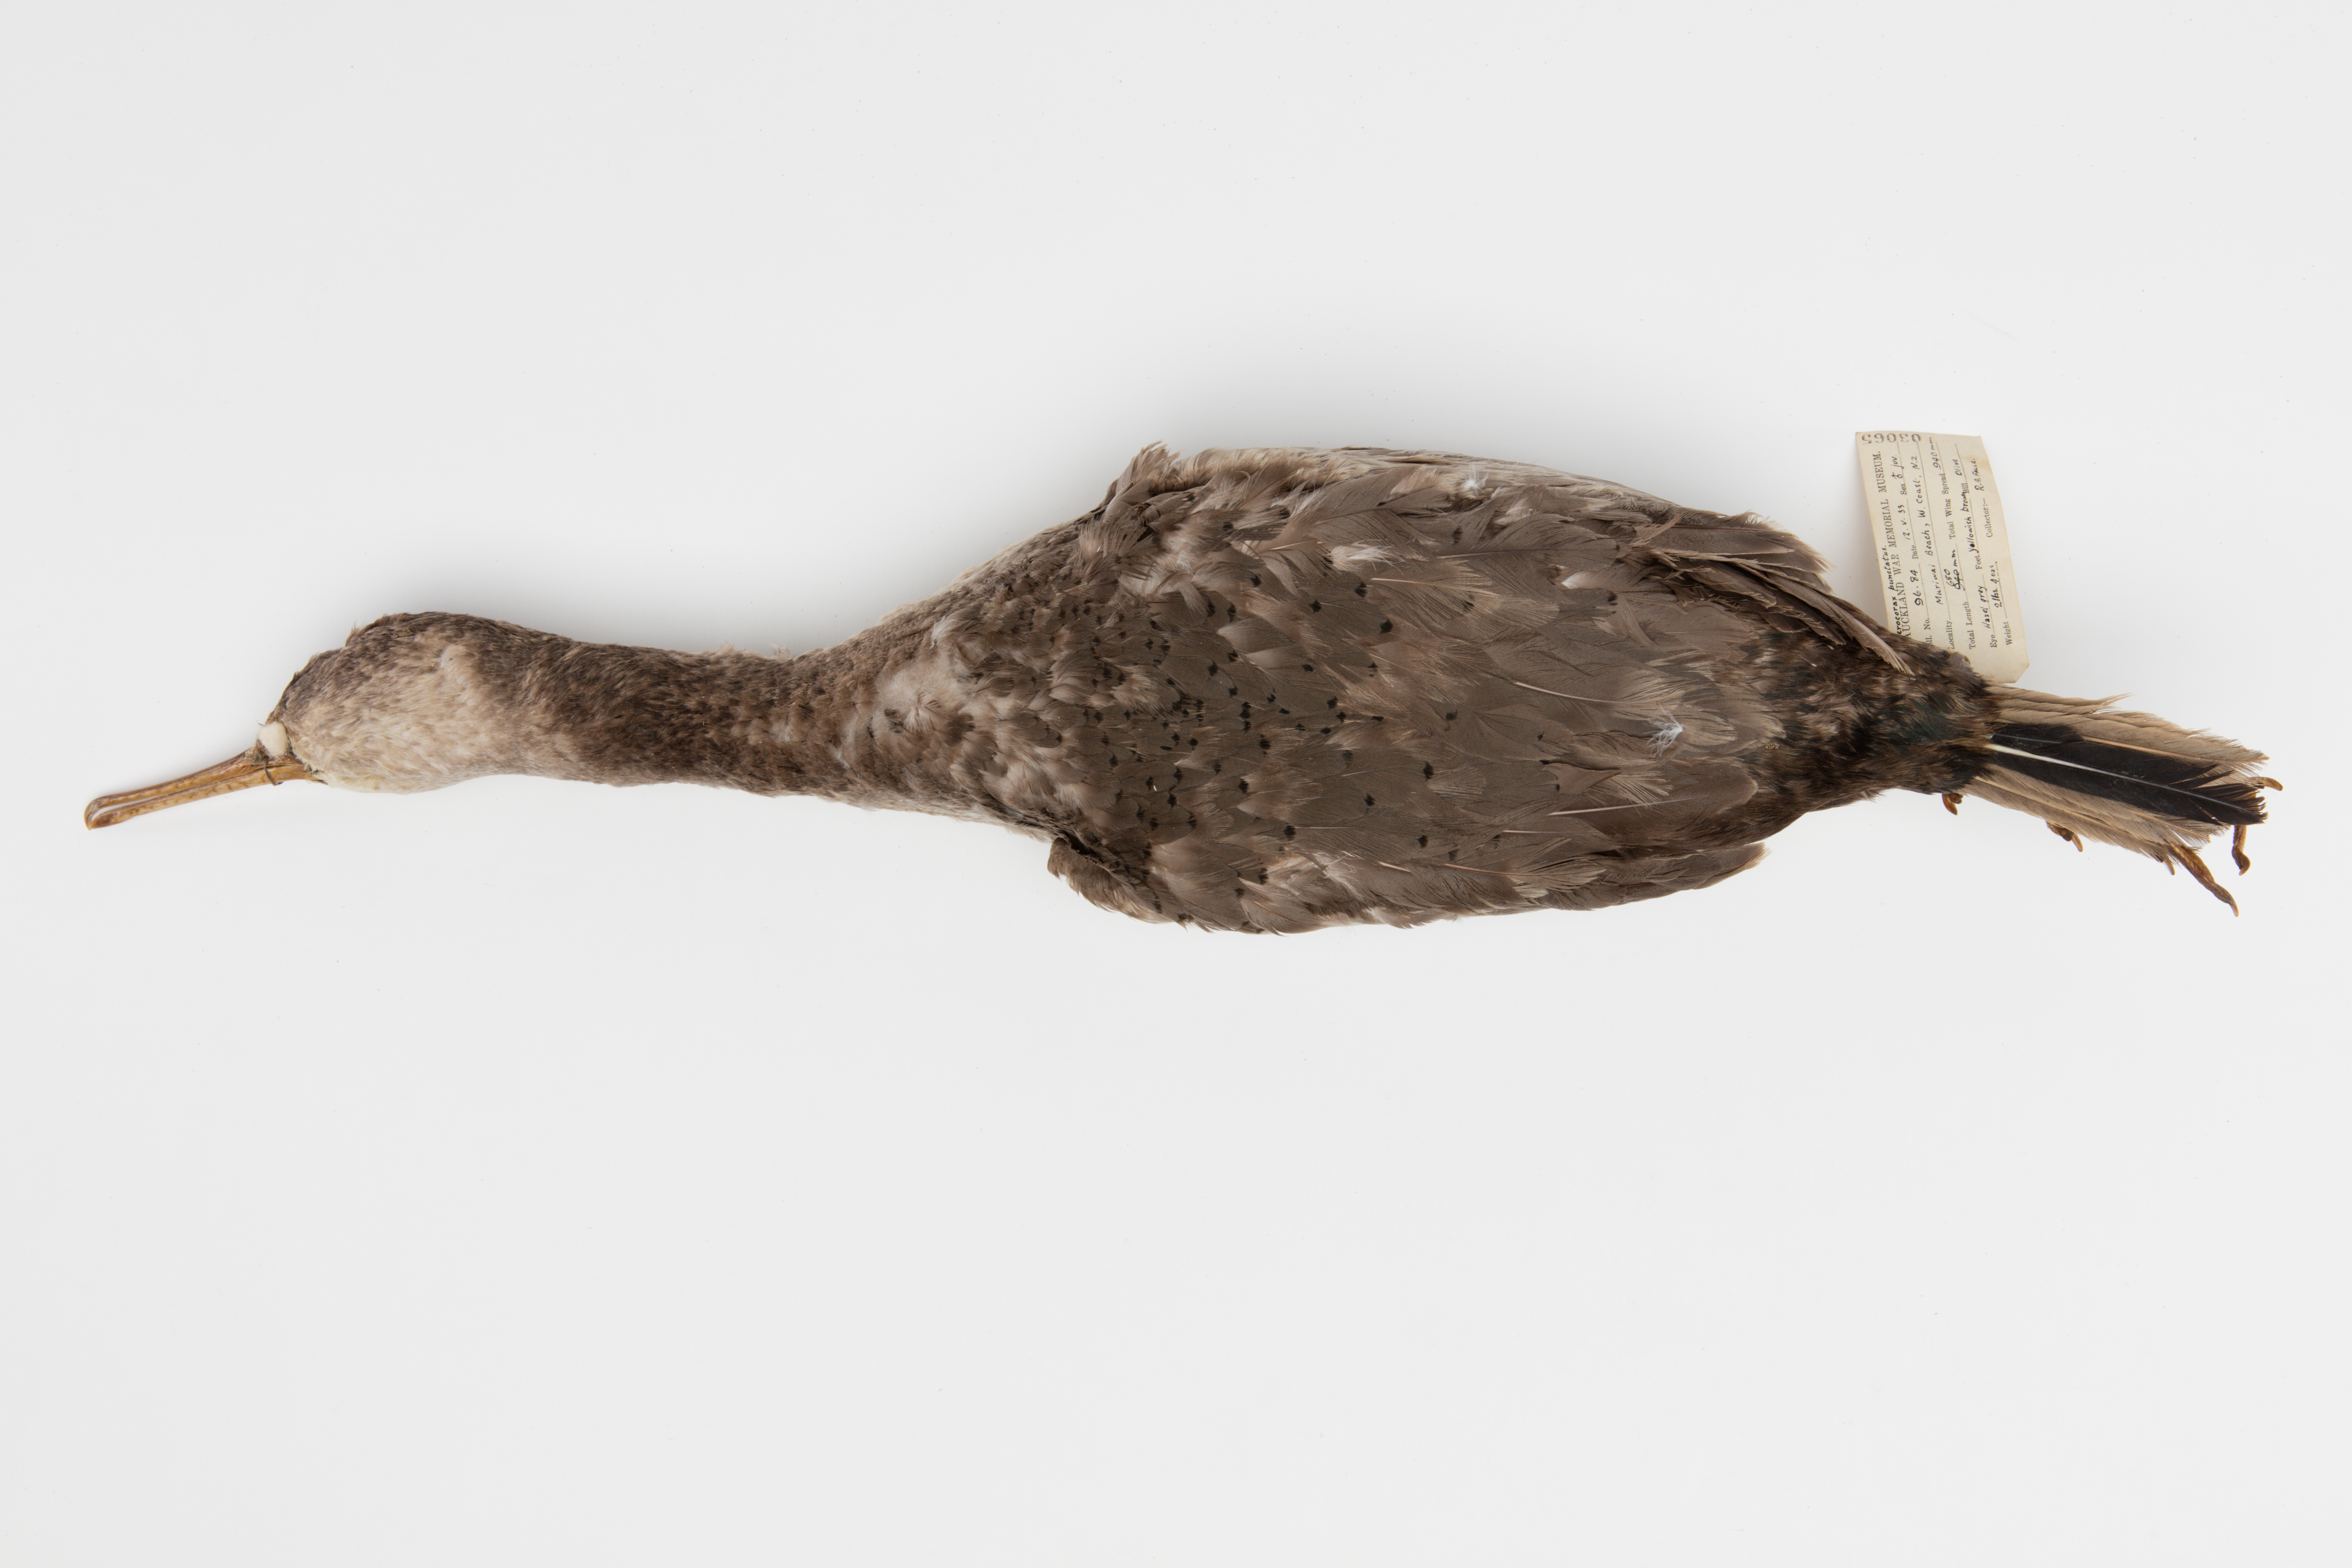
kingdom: Animalia
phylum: Chordata
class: Aves
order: Suliformes
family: Phalacrocoracidae
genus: Phalacrocorax
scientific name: Phalacrocorax punctatus
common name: Spotted shag
